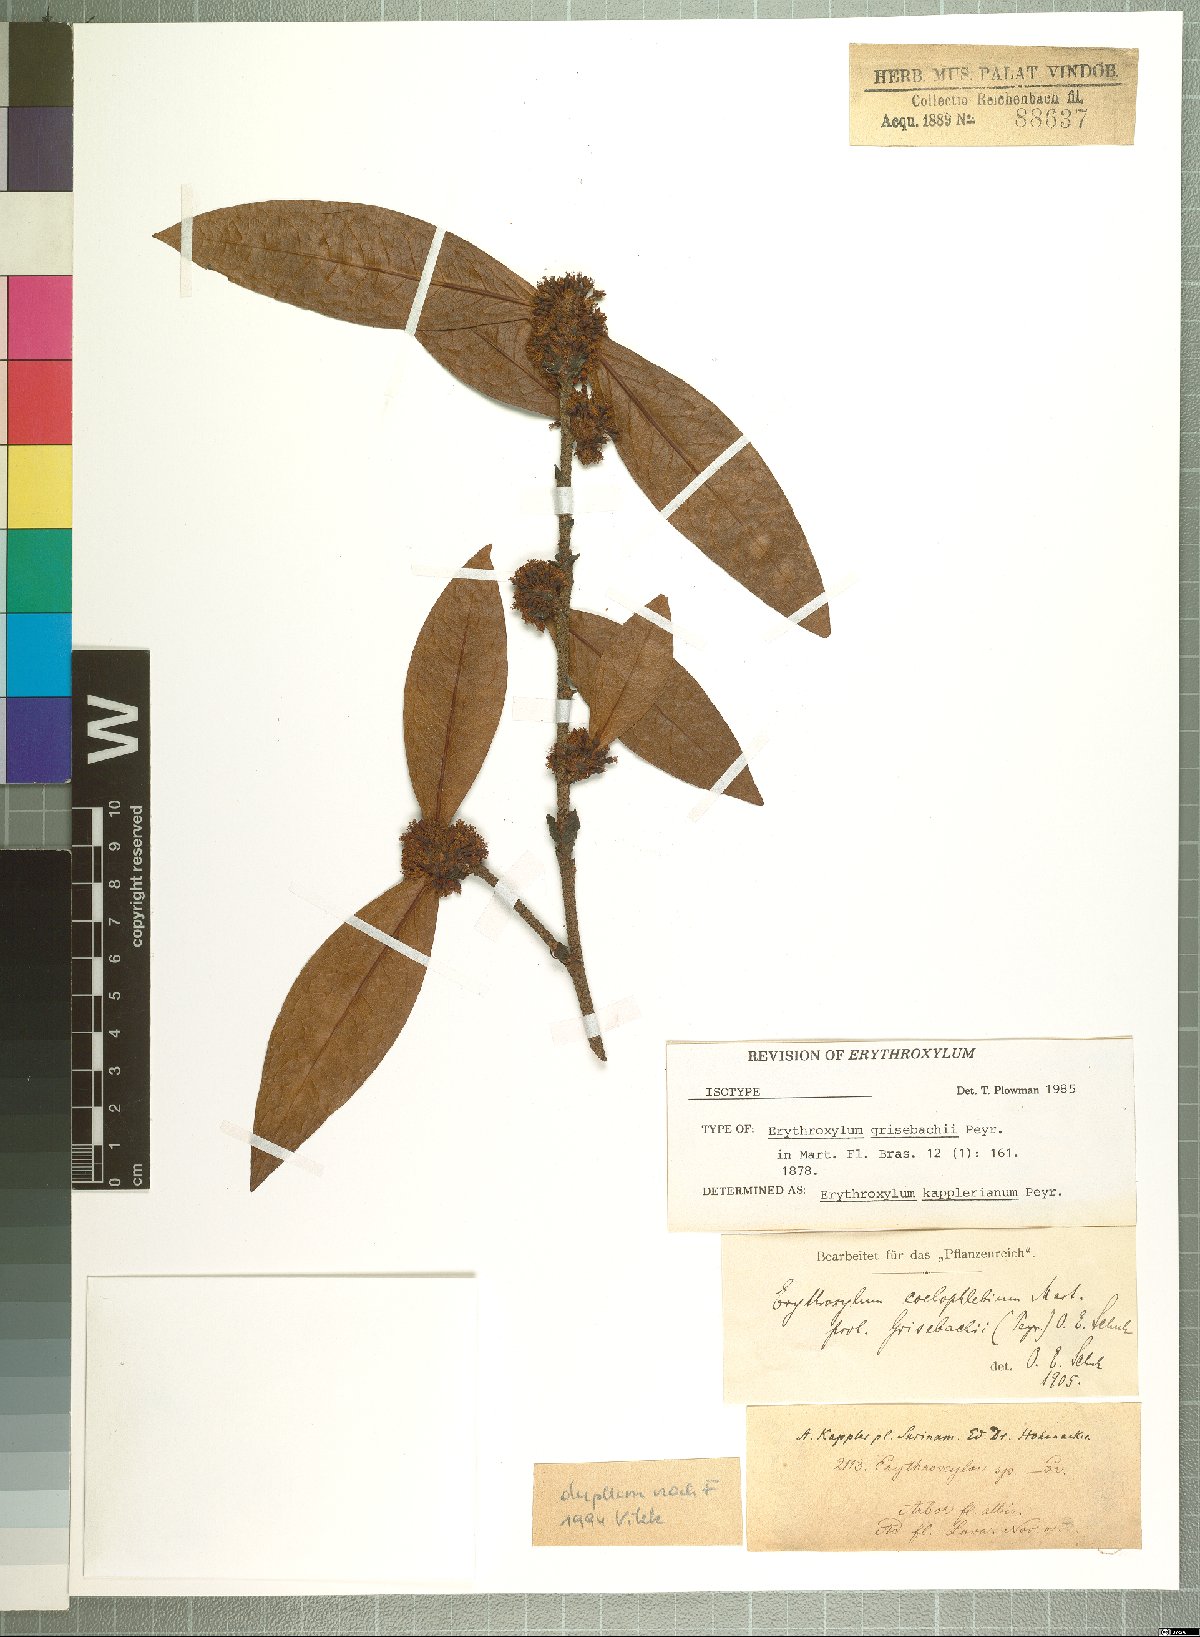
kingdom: Plantae
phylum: Tracheophyta
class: Magnoliopsida
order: Malpighiales
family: Erythroxylaceae
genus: Erythroxylum
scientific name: Erythroxylum kapplerianum
